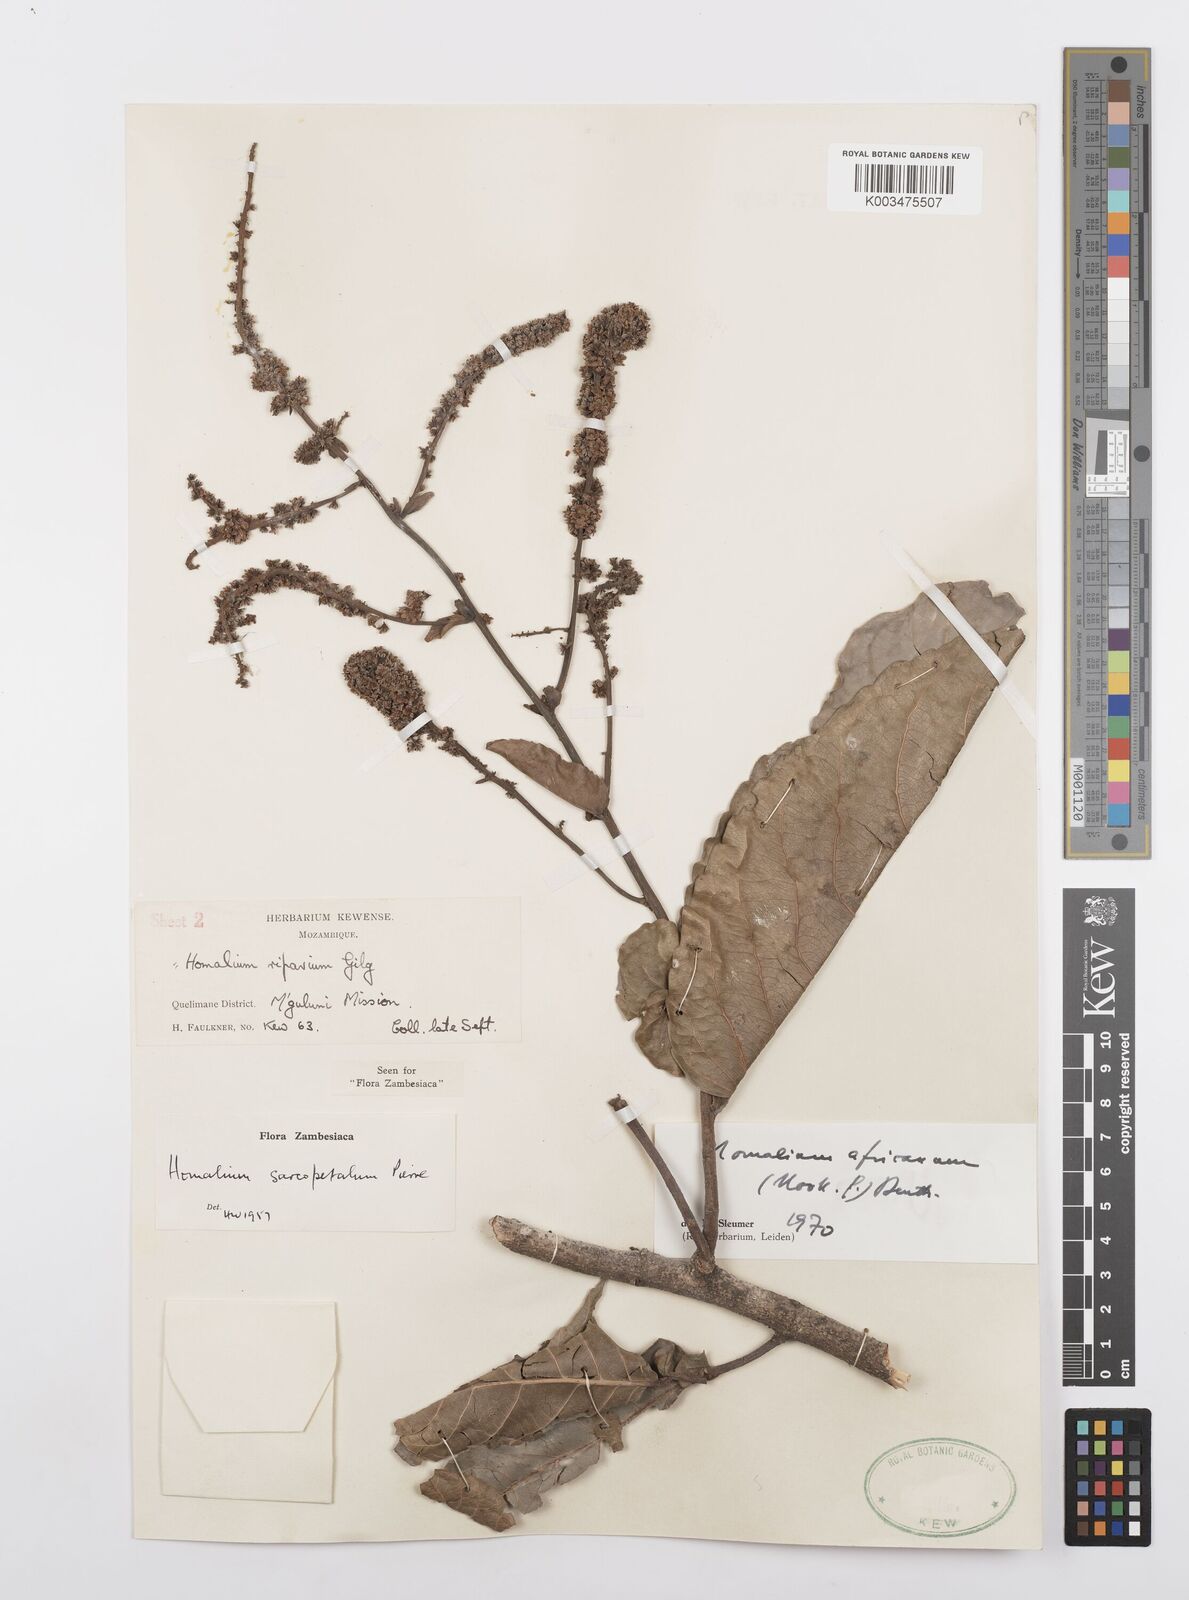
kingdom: Plantae
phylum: Tracheophyta
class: Magnoliopsida
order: Malpighiales
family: Salicaceae
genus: Homalium
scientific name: Homalium africanum
